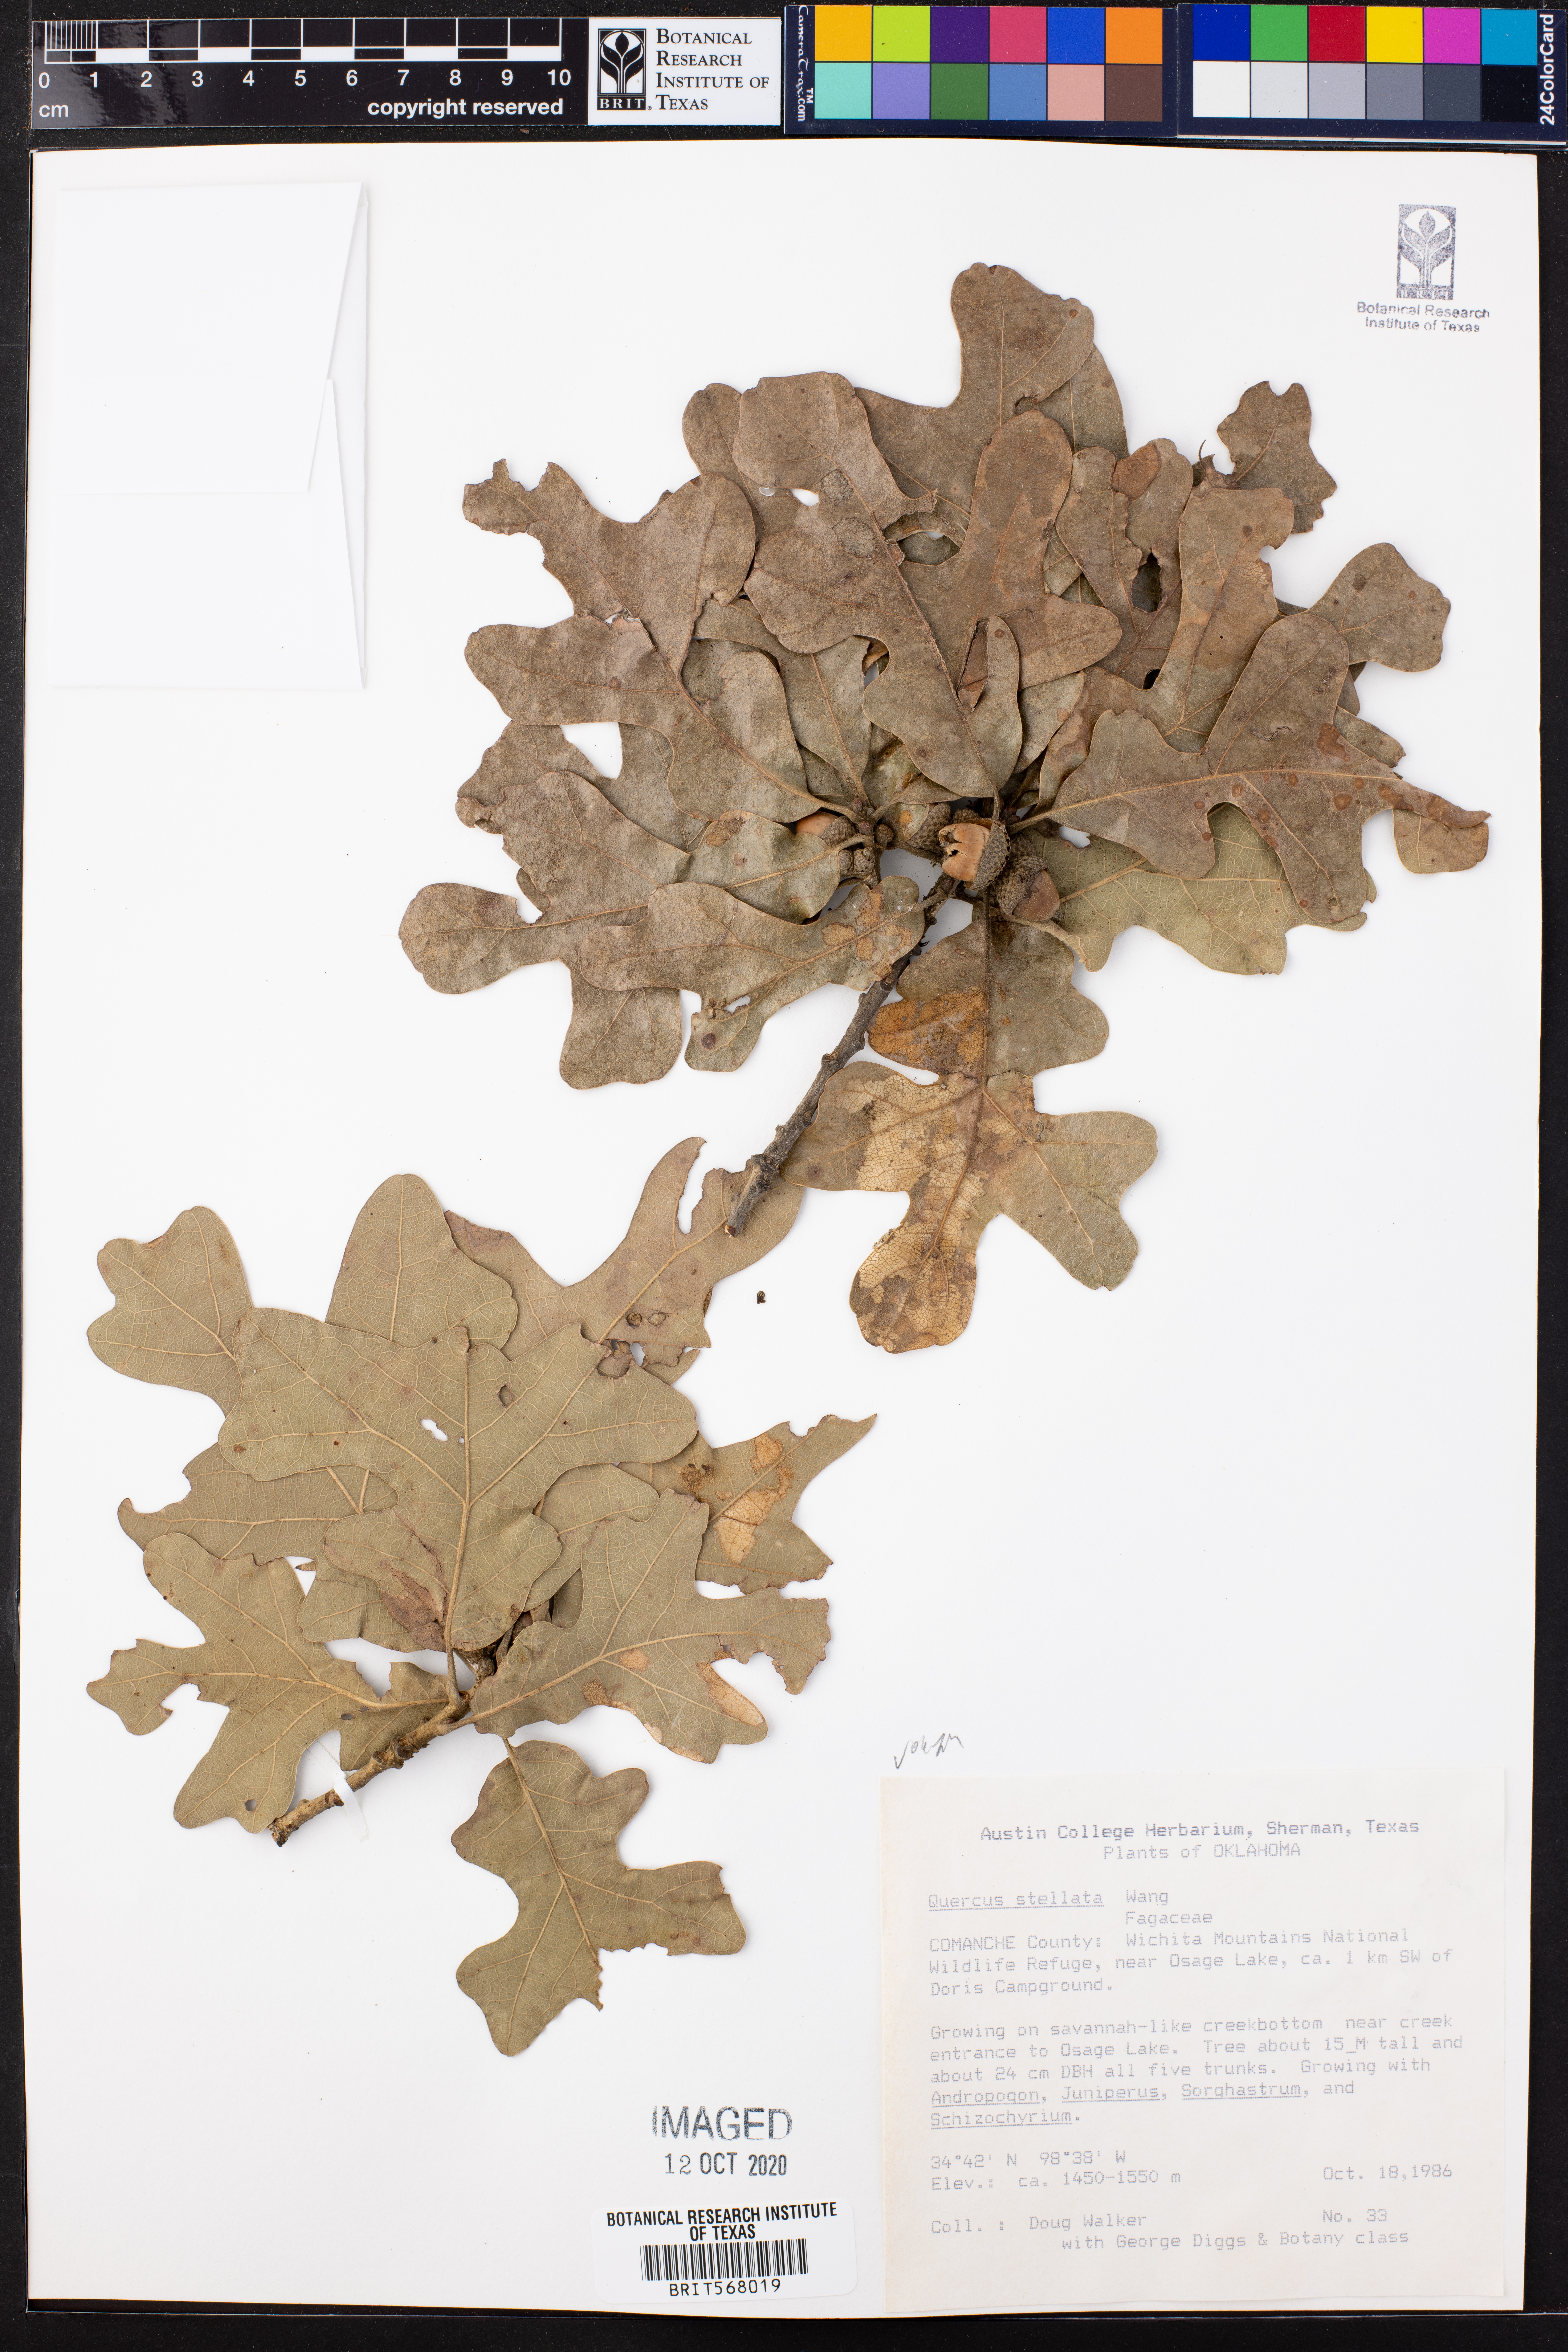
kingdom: Plantae
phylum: Tracheophyta
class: Magnoliopsida
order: Fagales
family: Fagaceae
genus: Quercus
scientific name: Quercus stellata
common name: Post oak
